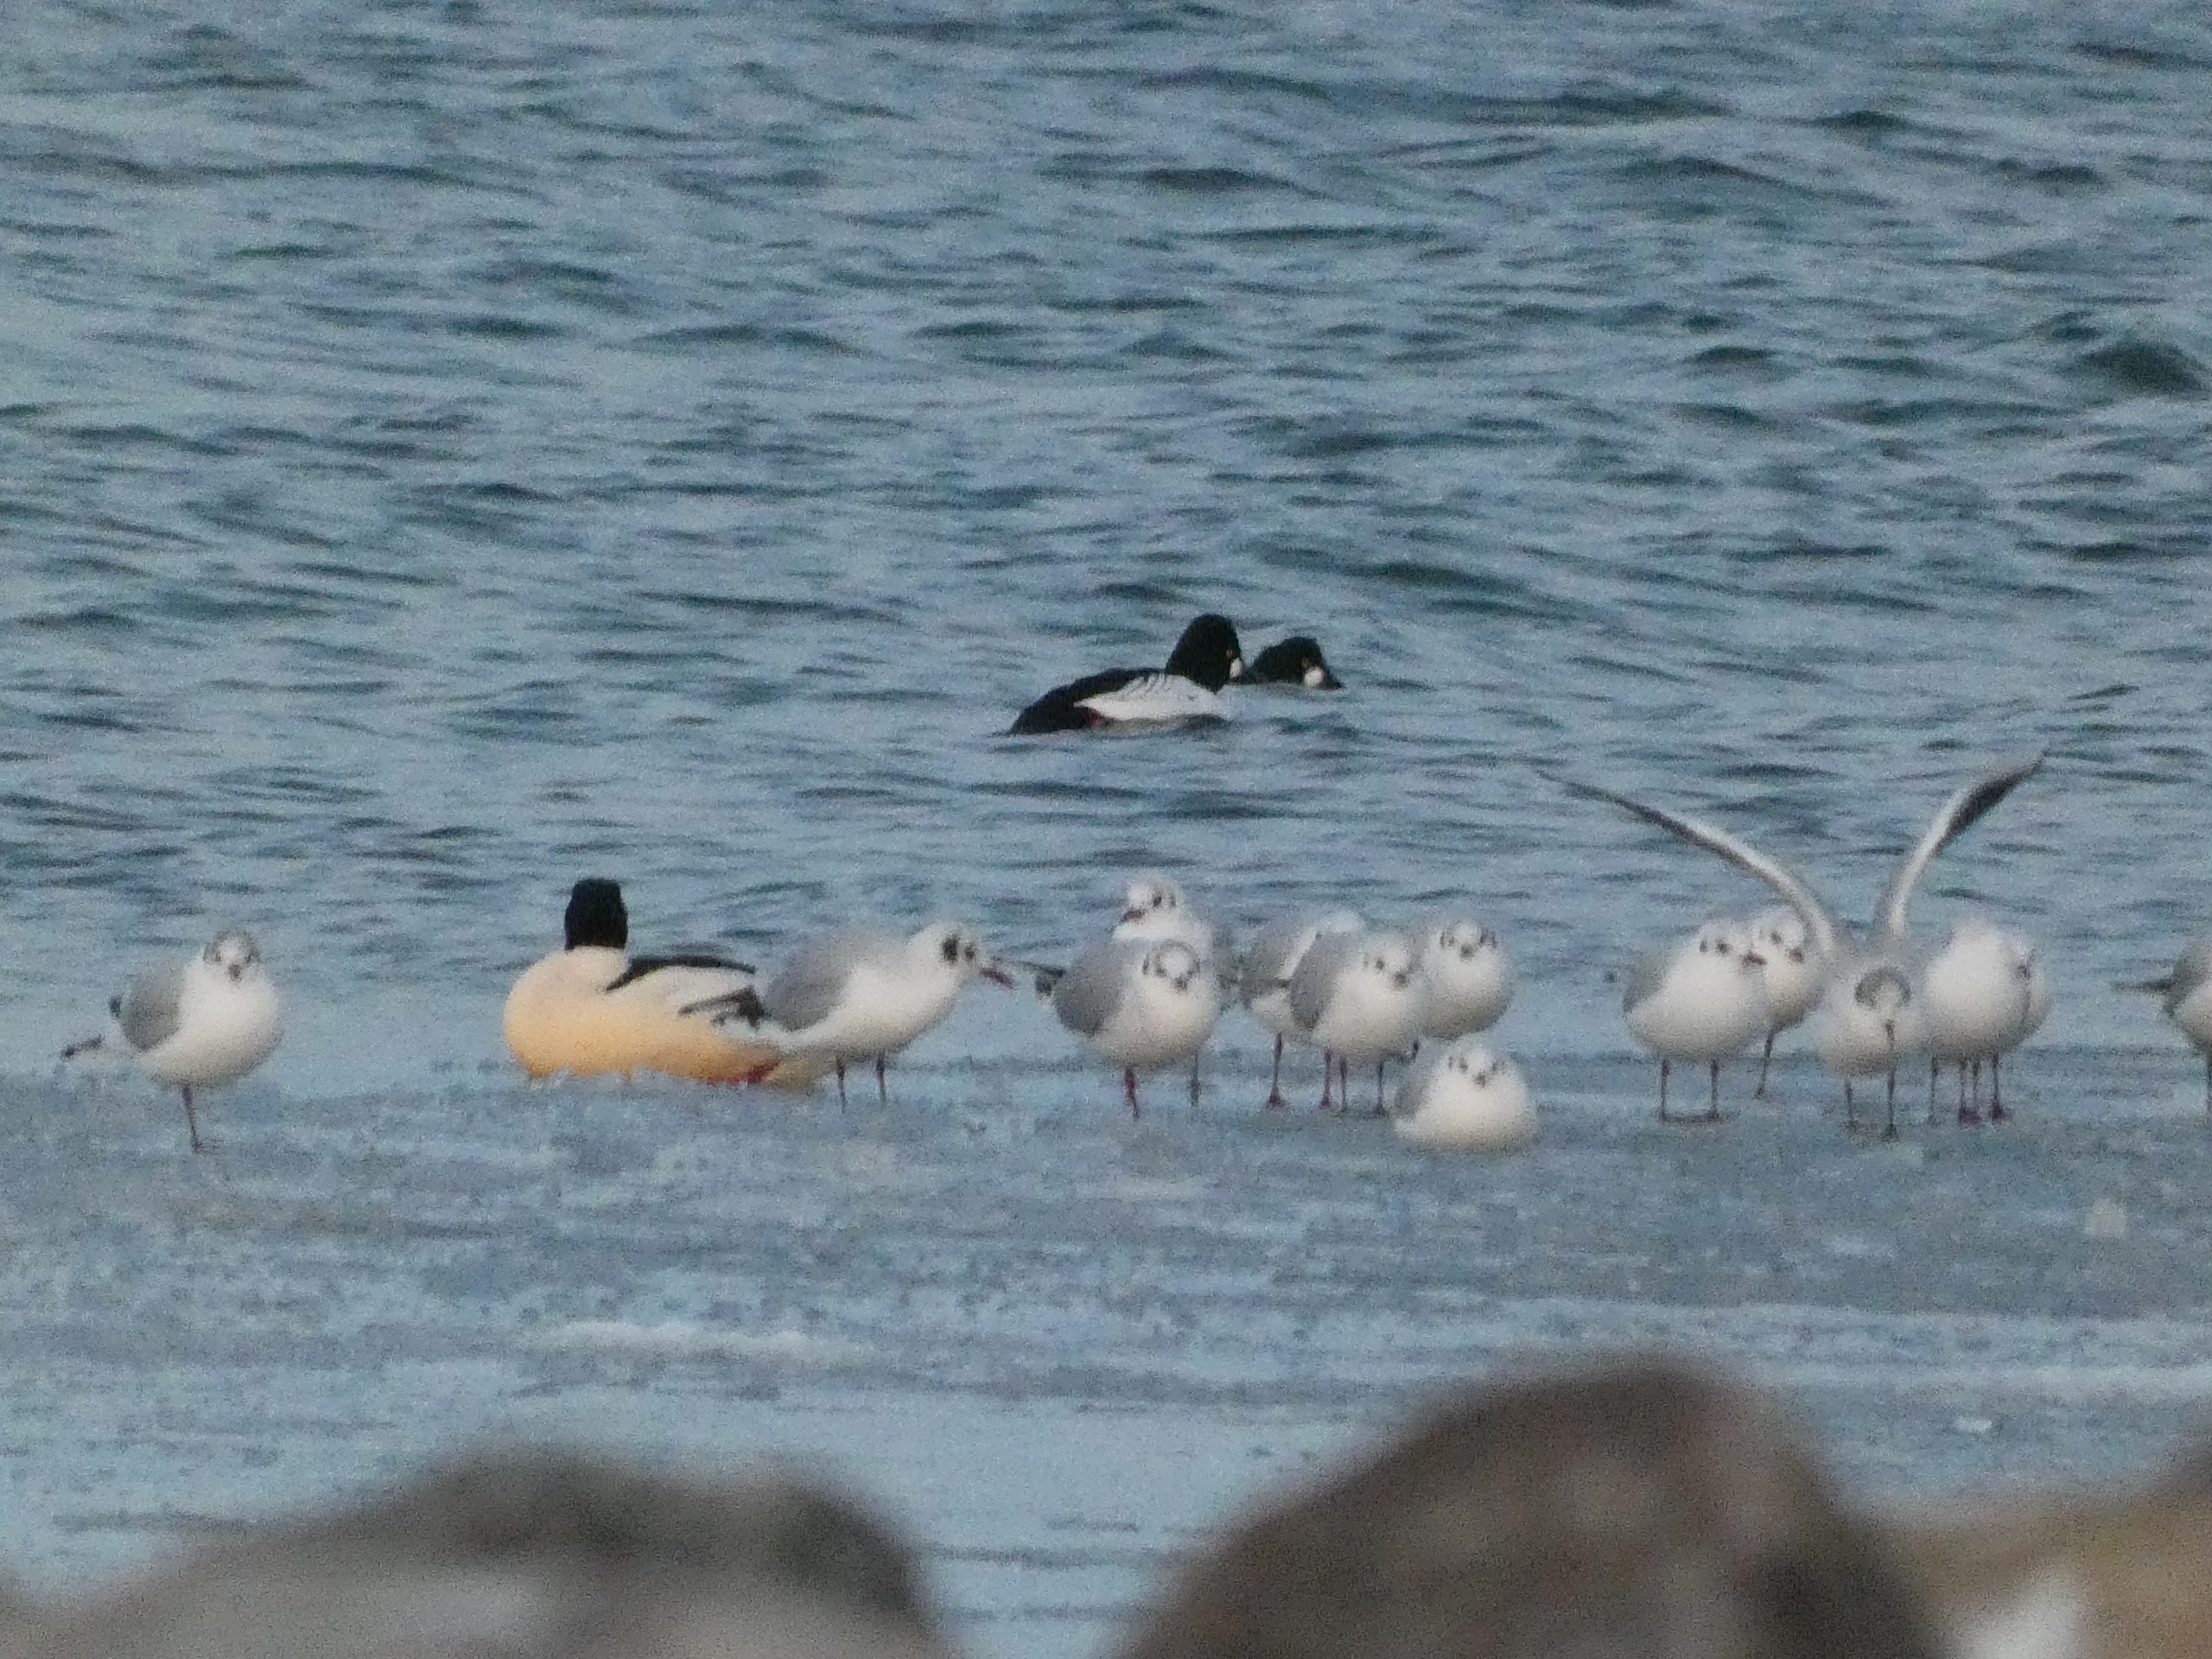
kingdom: Animalia
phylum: Chordata
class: Aves
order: Anseriformes
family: Anatidae
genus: Bucephala
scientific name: Bucephala clangula
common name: Hvinand
